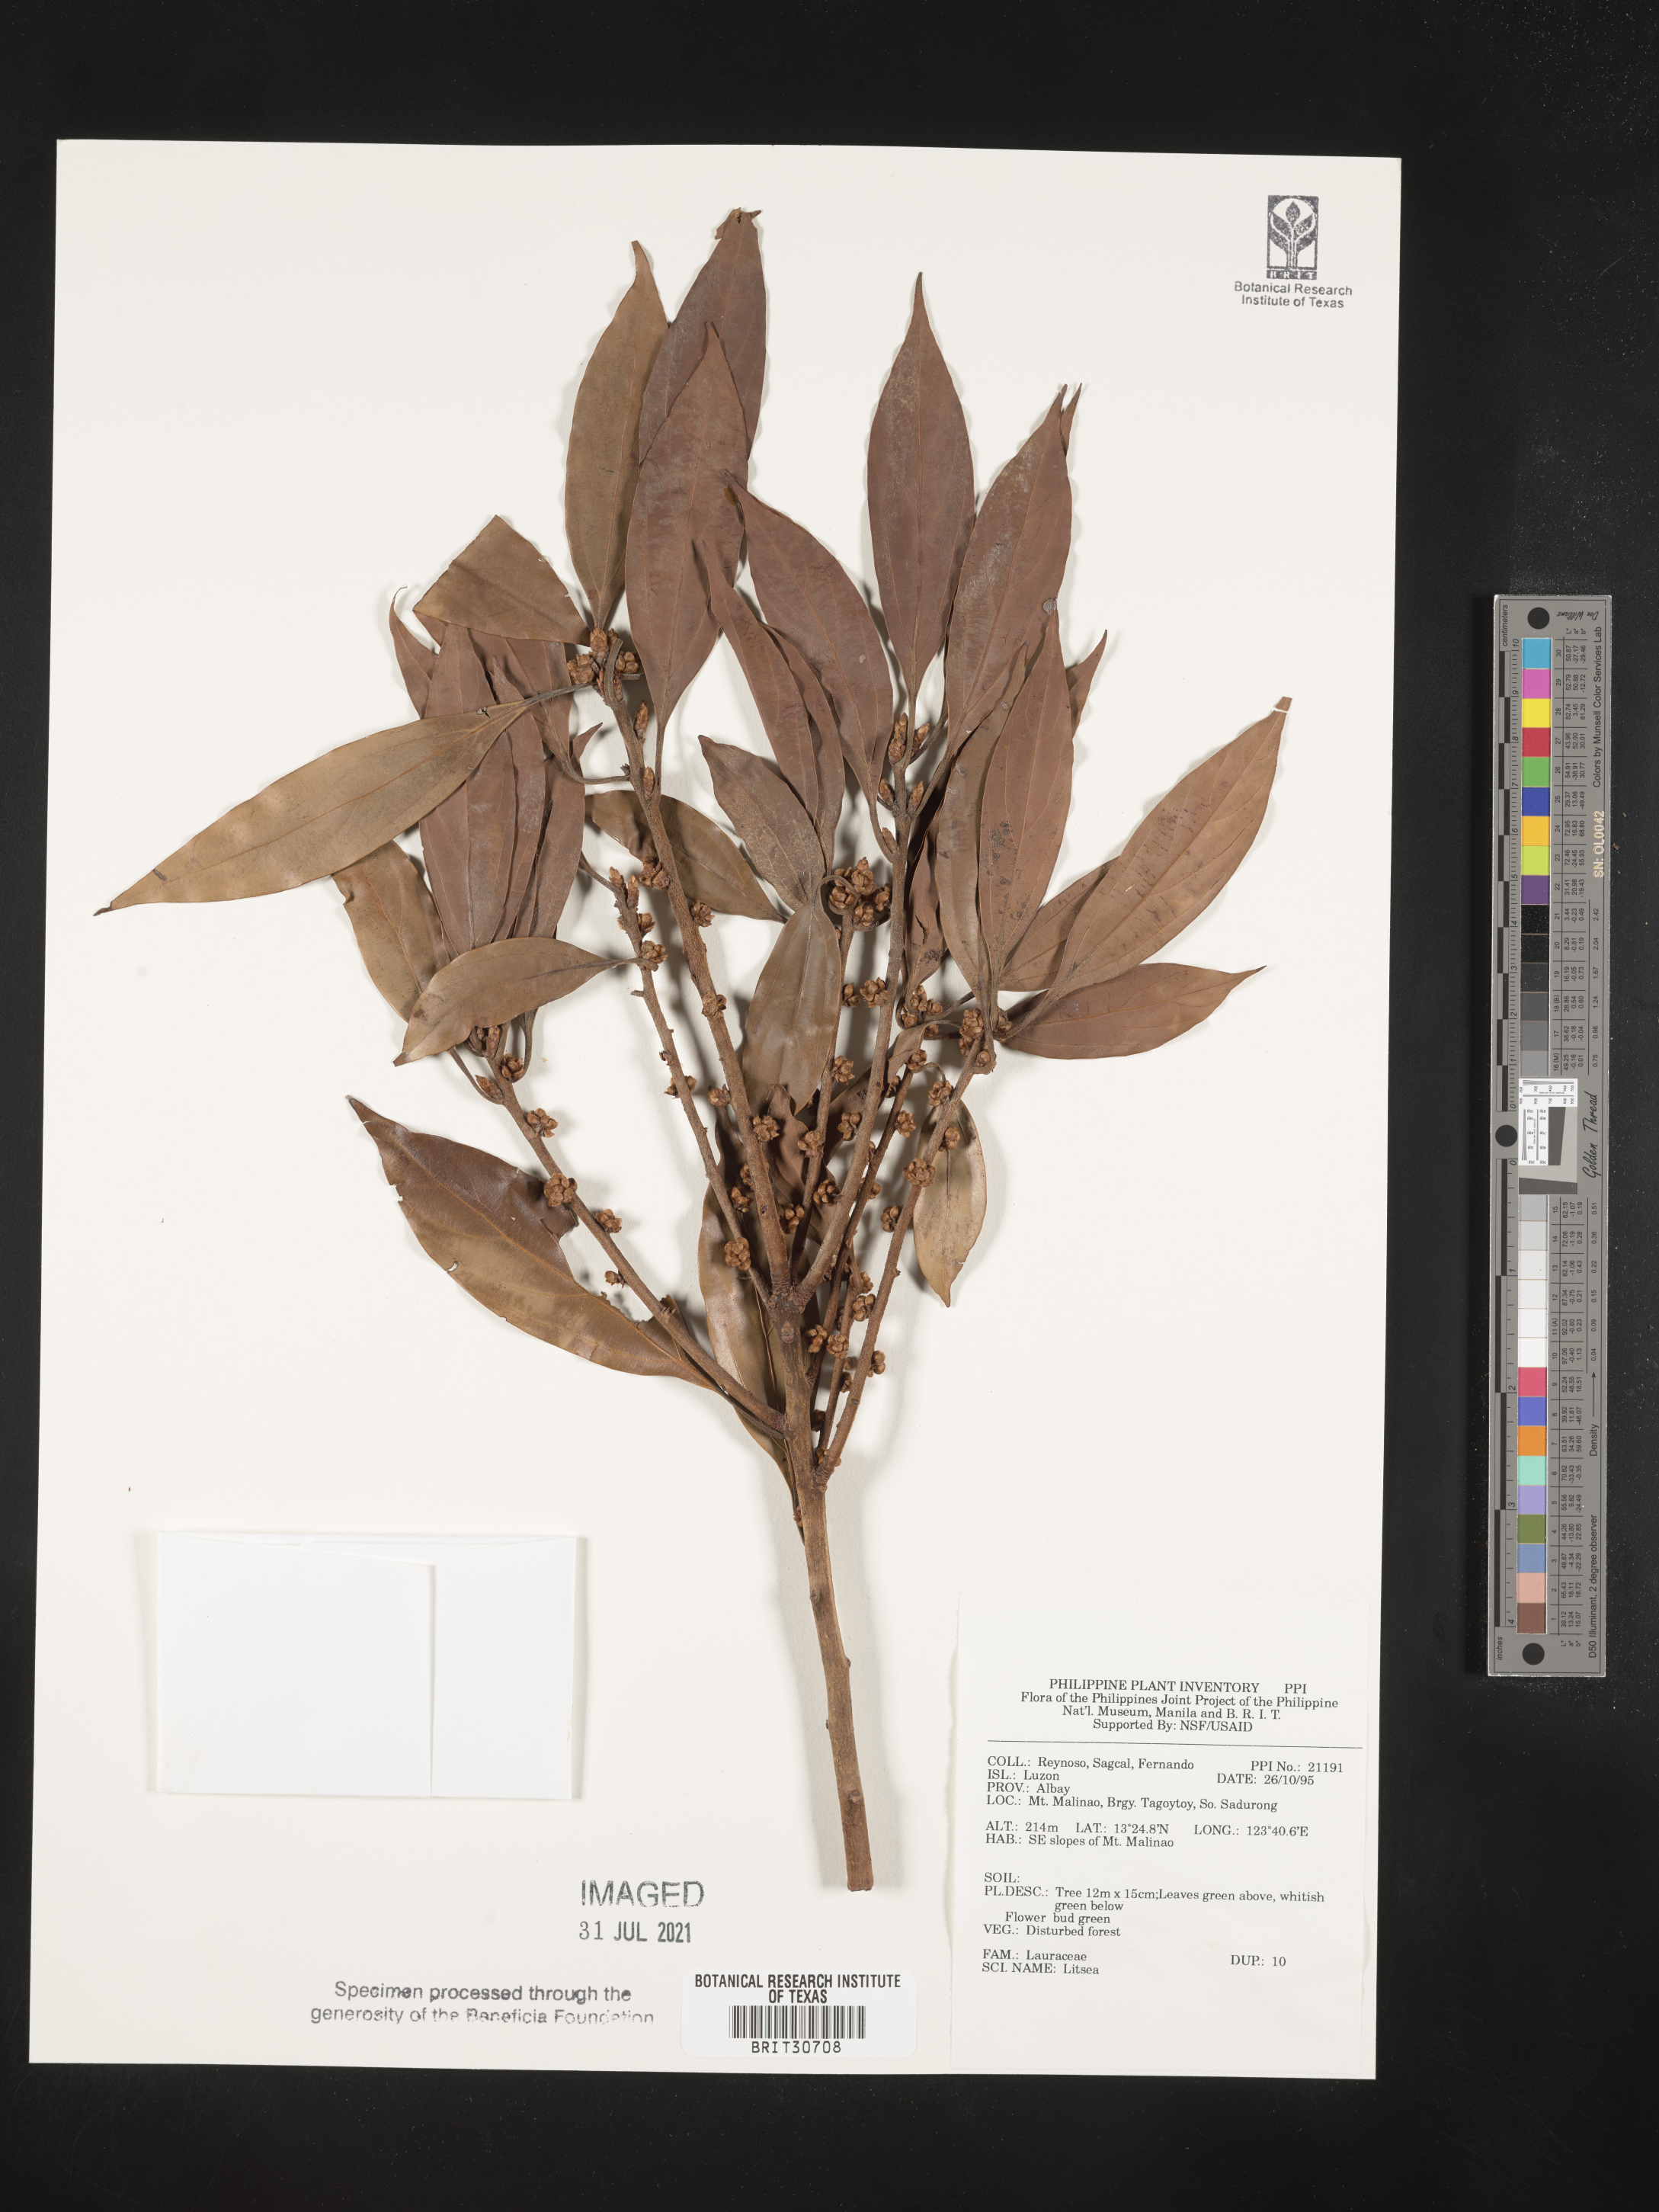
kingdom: Plantae
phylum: Tracheophyta
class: Magnoliopsida
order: Laurales
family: Lauraceae
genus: Litsea
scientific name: Litsea
